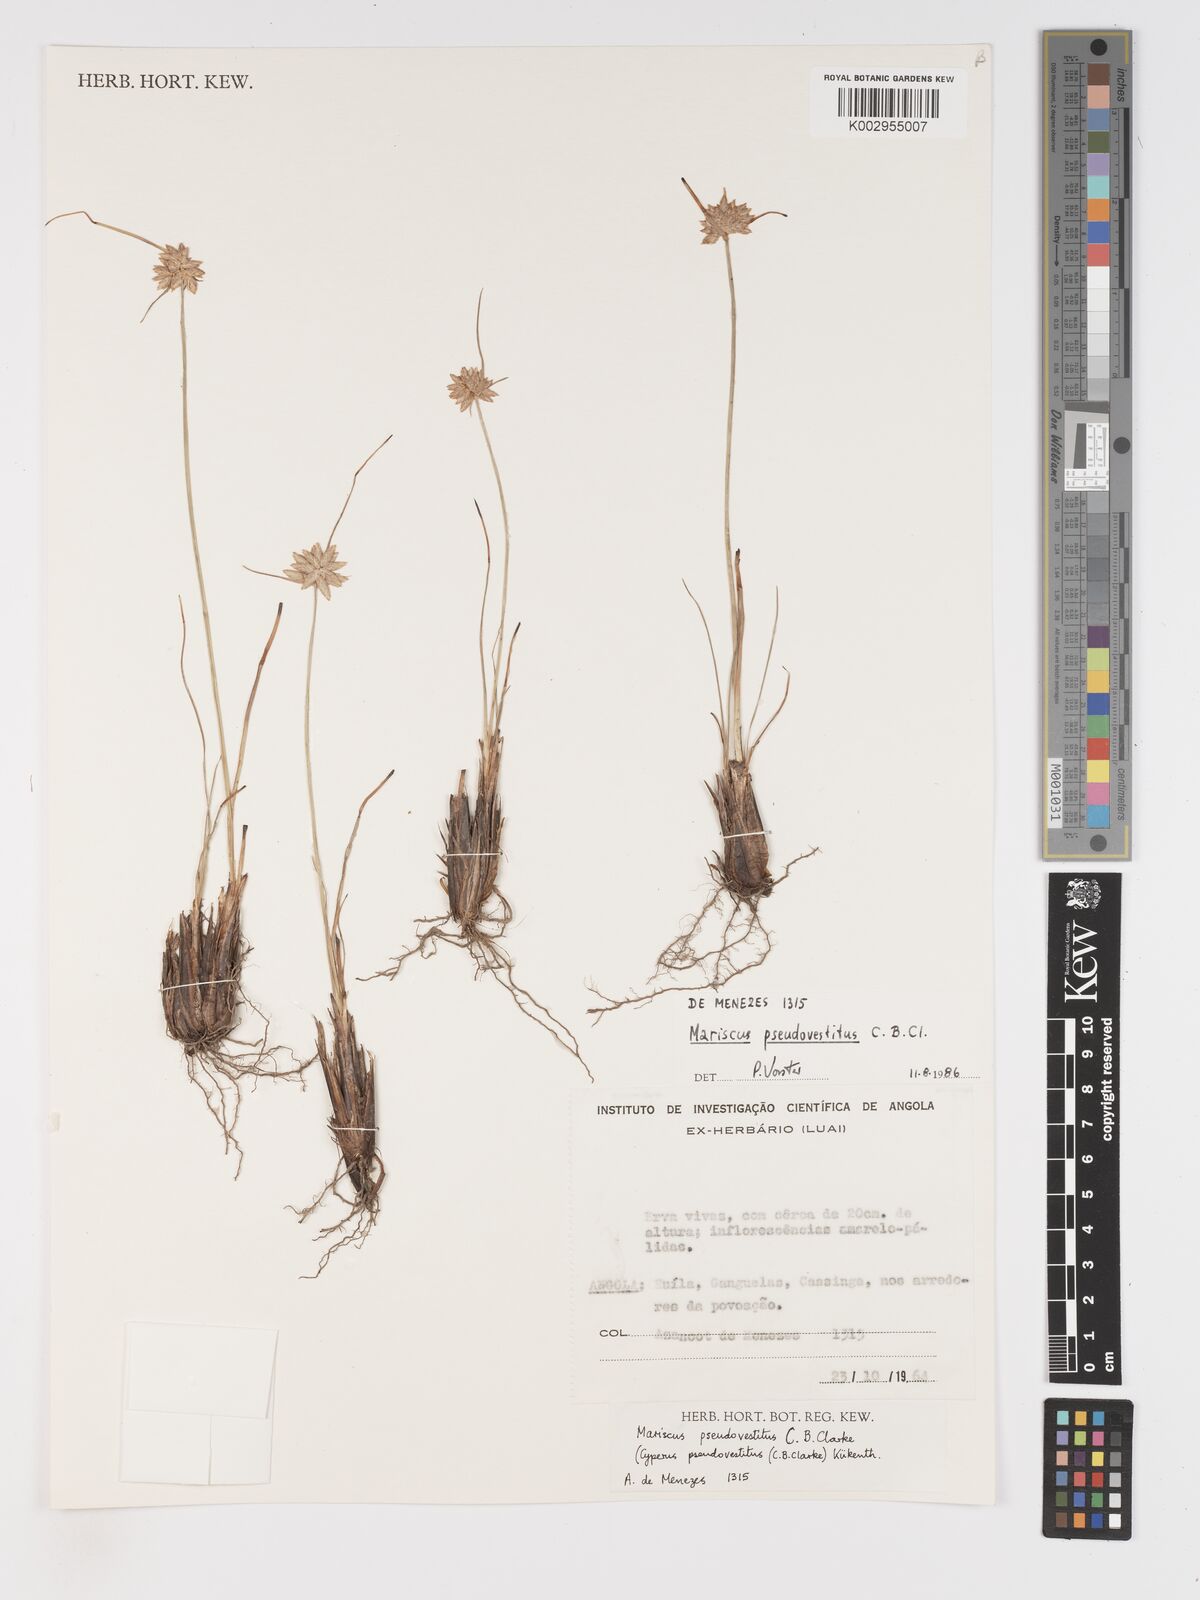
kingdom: Plantae
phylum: Tracheophyta
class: Liliopsida
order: Poales
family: Cyperaceae
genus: Cyperus
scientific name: Cyperus pseudovestitus
